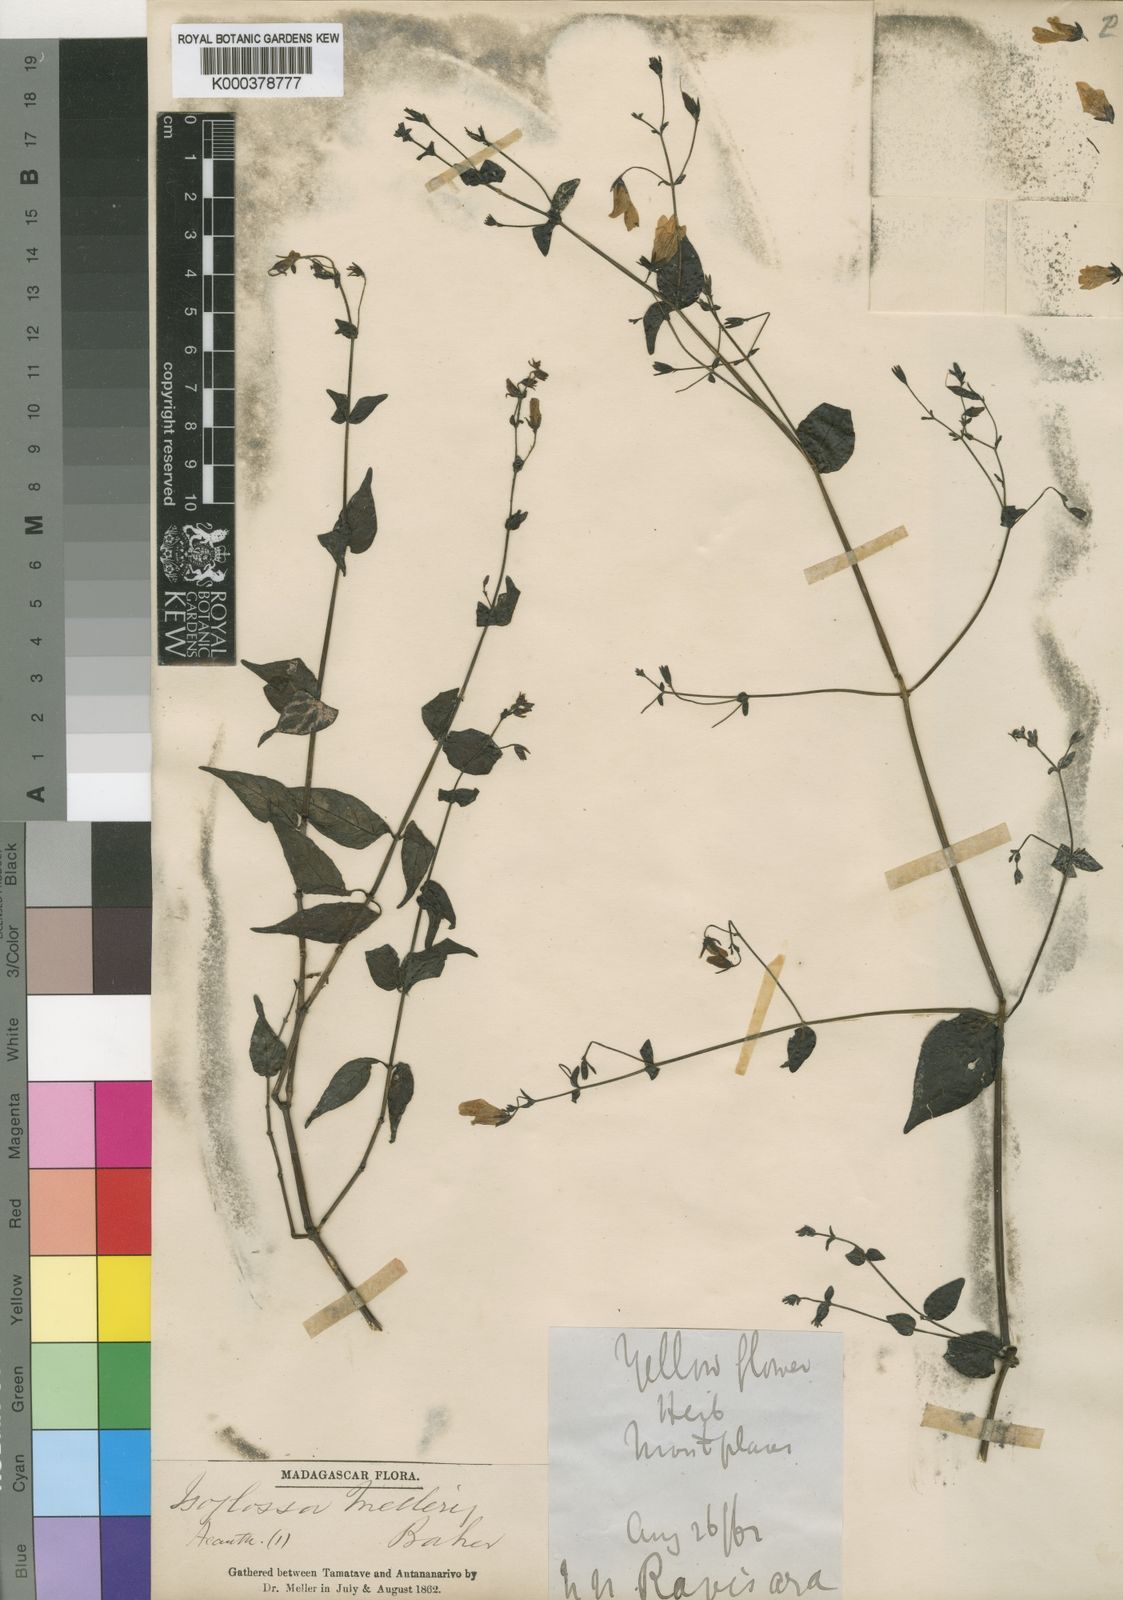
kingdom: Plantae
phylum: Tracheophyta
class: Magnoliopsida
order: Lamiales
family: Acanthaceae
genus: Isoglossa
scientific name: Isoglossa melleri
